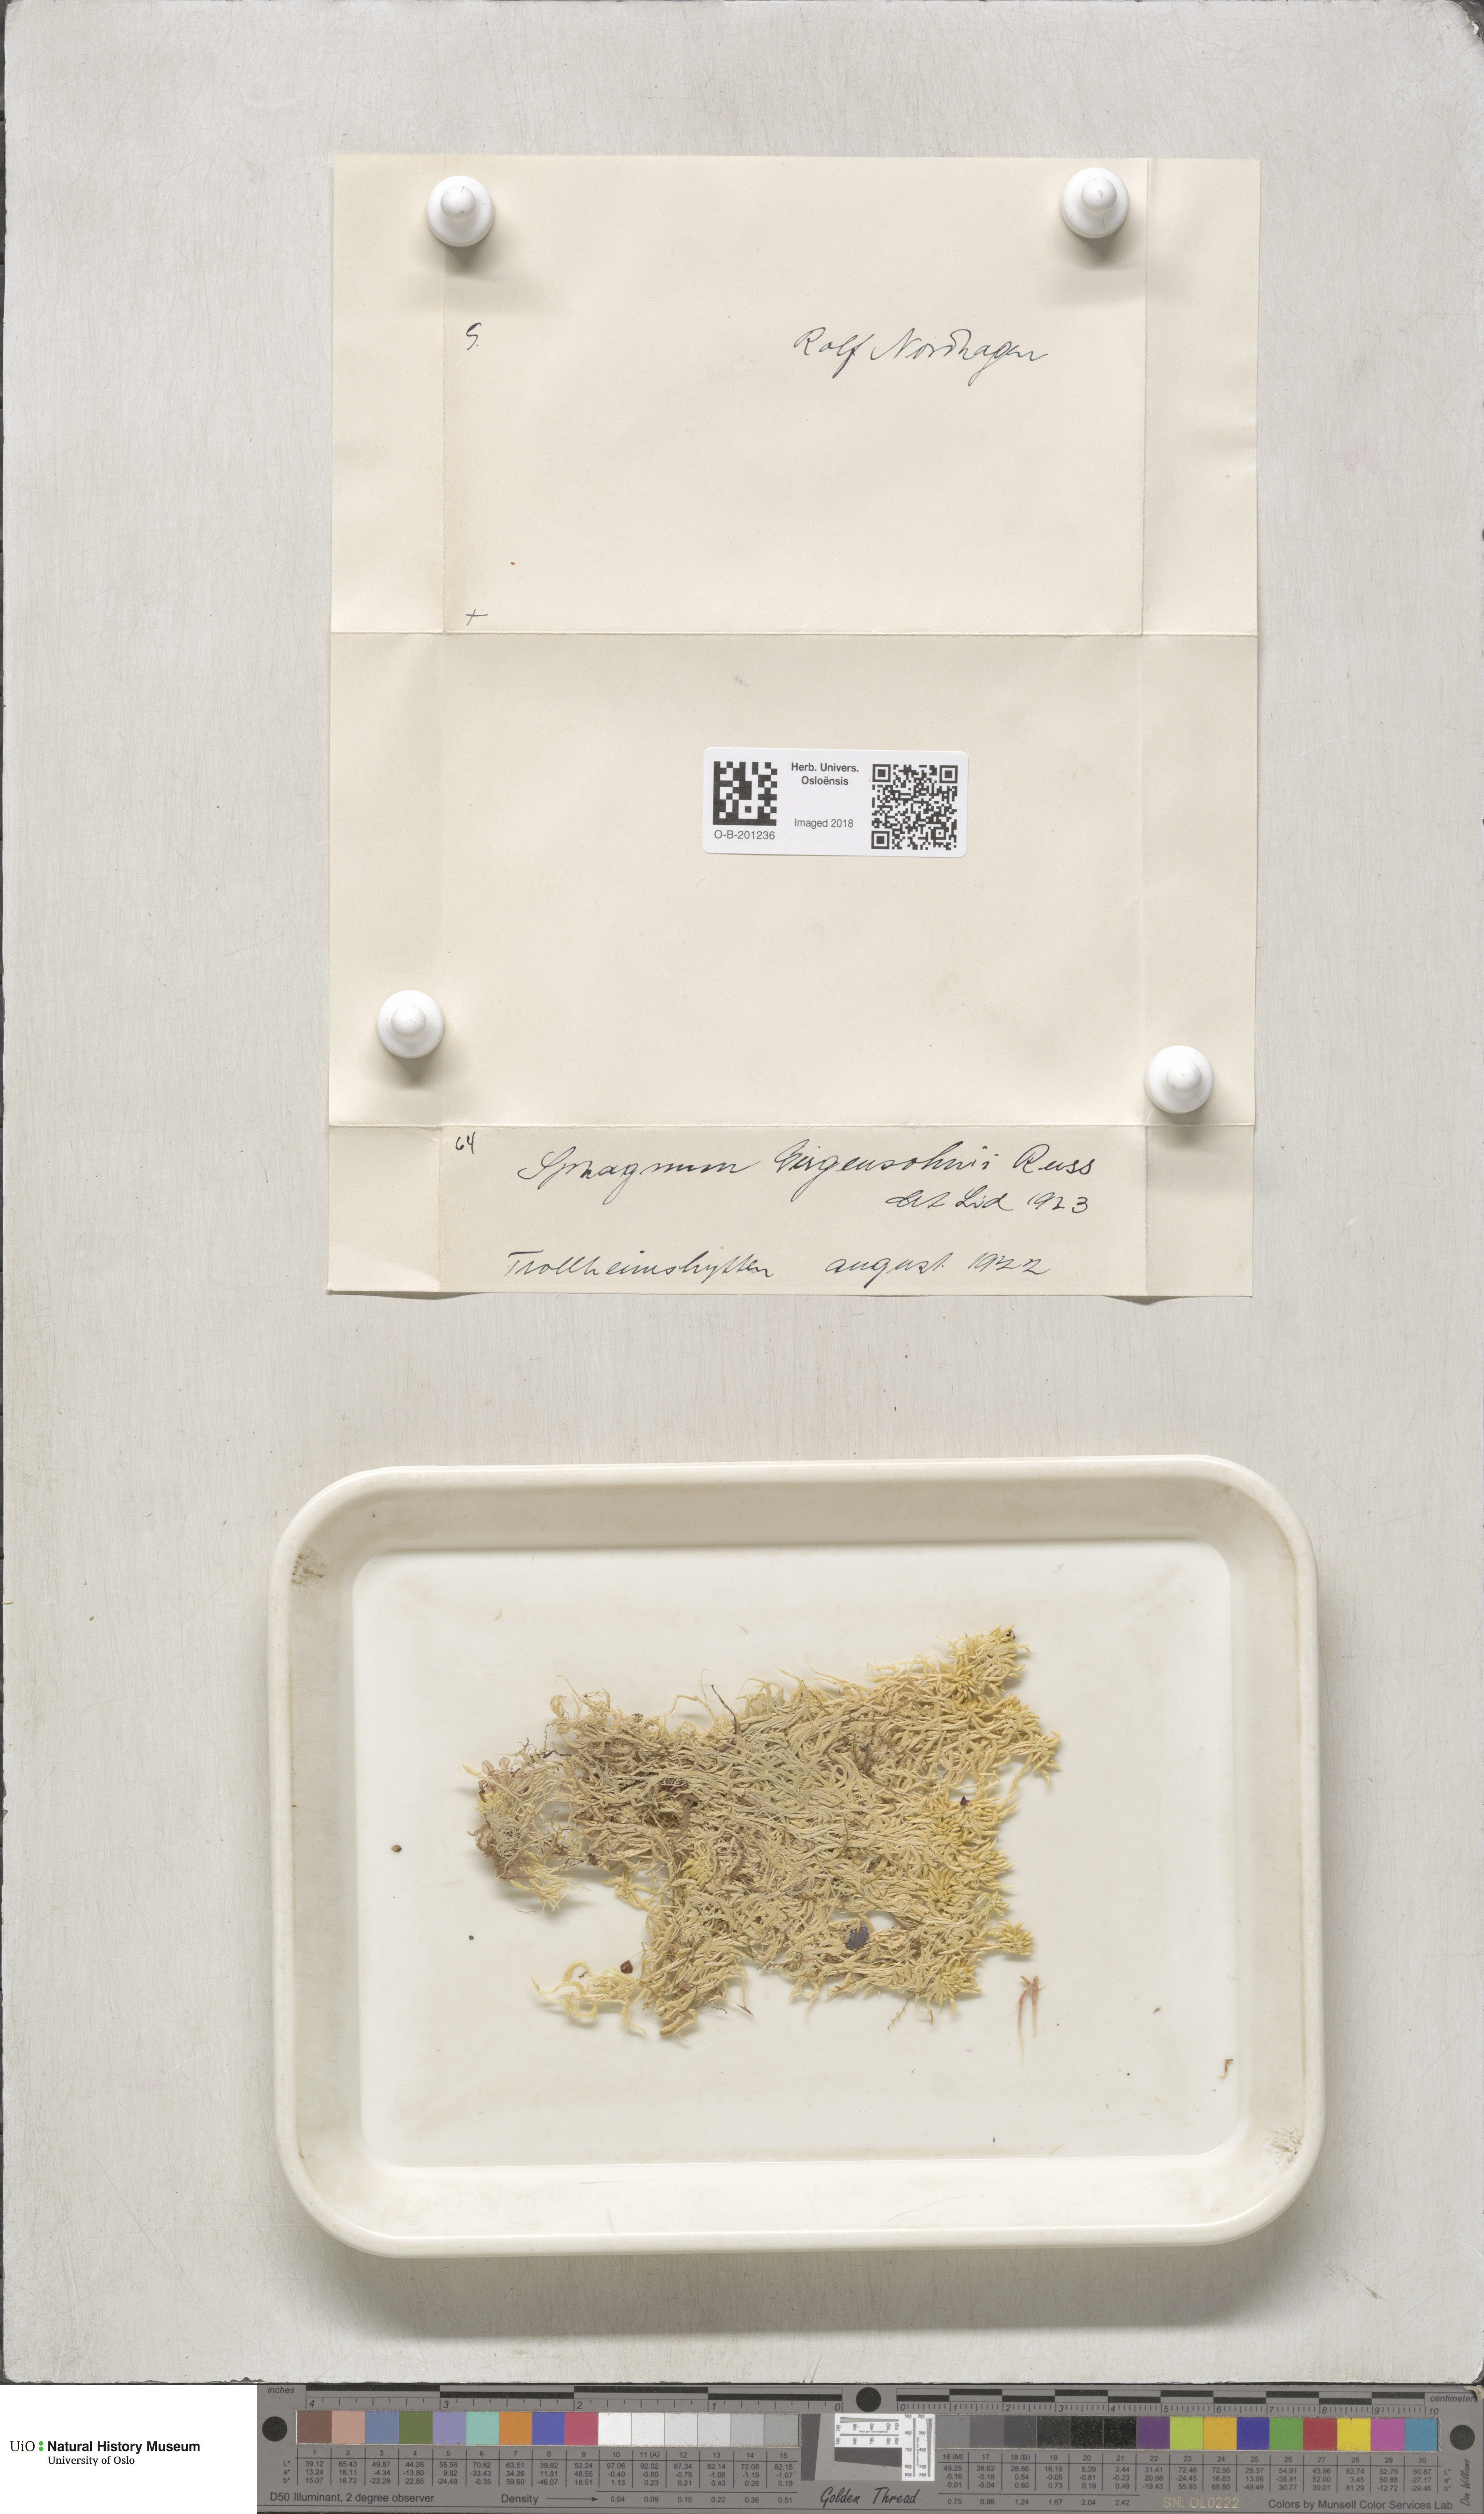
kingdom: Plantae
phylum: Bryophyta
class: Sphagnopsida
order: Sphagnales
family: Sphagnaceae
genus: Sphagnum
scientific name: Sphagnum girgensohnii
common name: Girgensohn's peat moss
